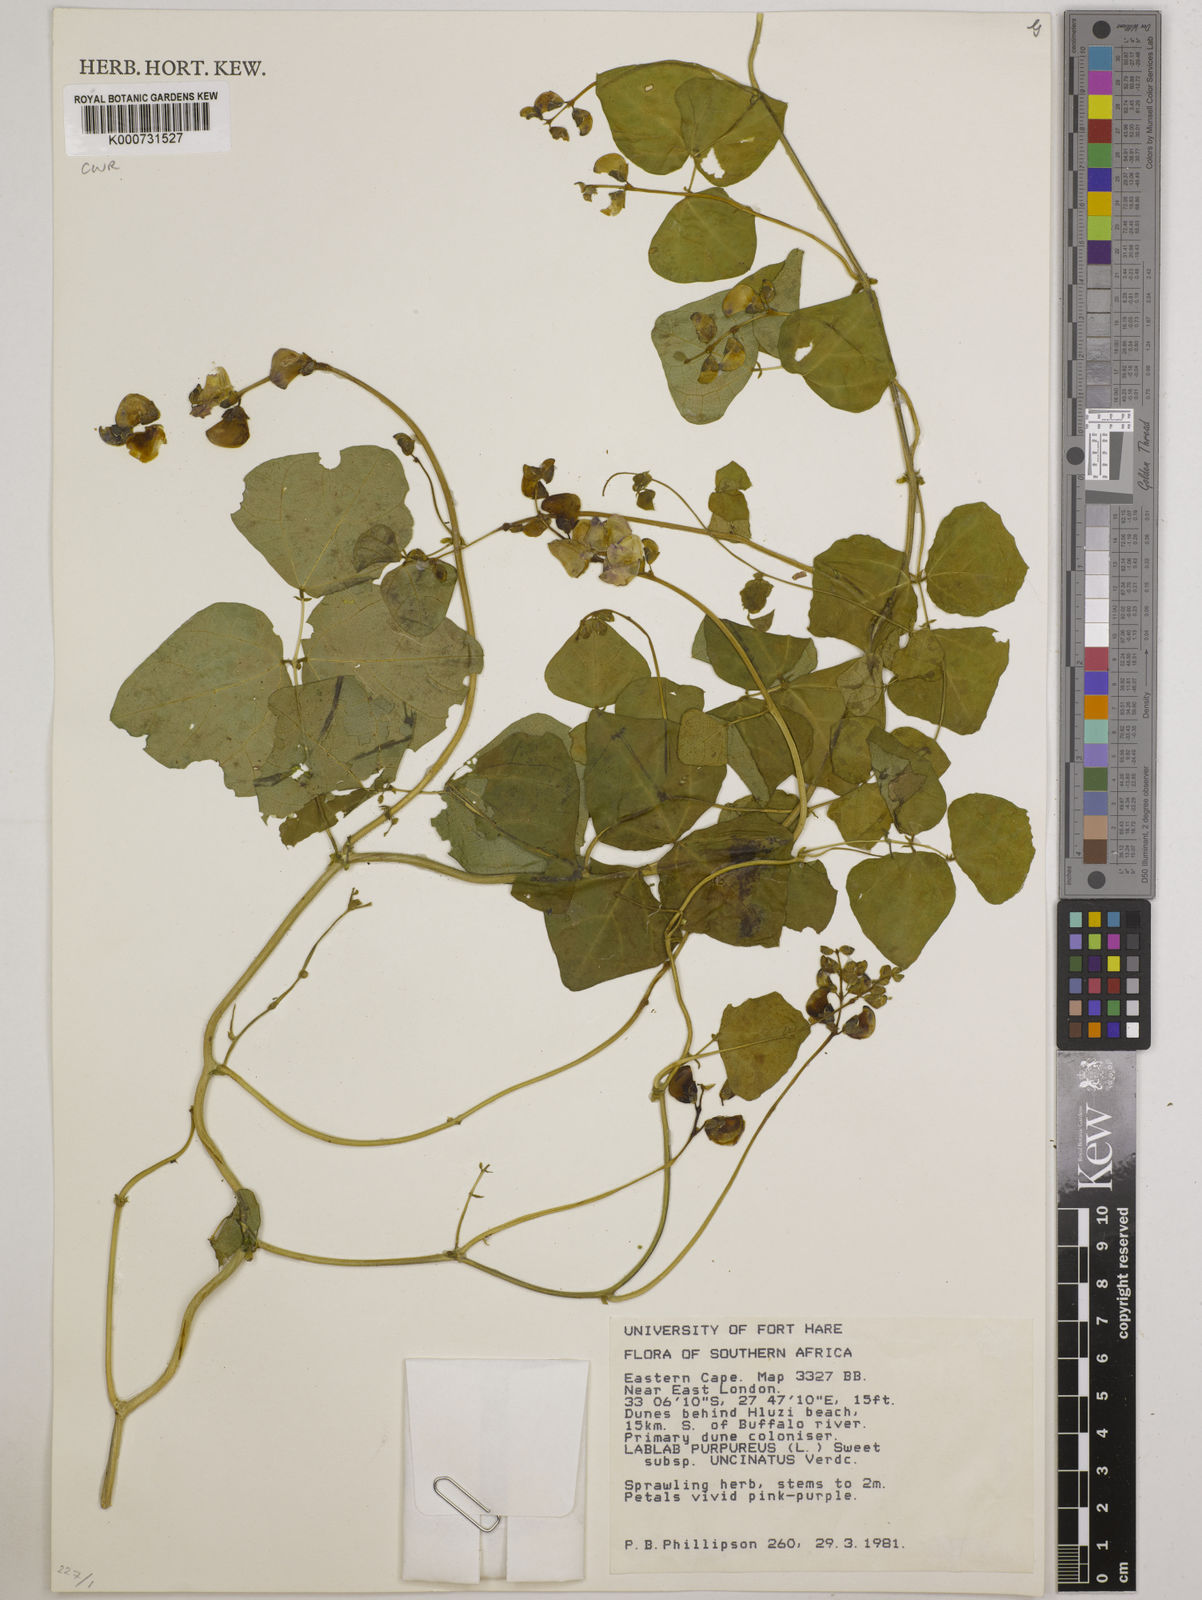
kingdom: Plantae
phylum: Tracheophyta
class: Magnoliopsida
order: Fabales
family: Fabaceae
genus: Lablab
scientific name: Lablab purpureus
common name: Lablab-bean
